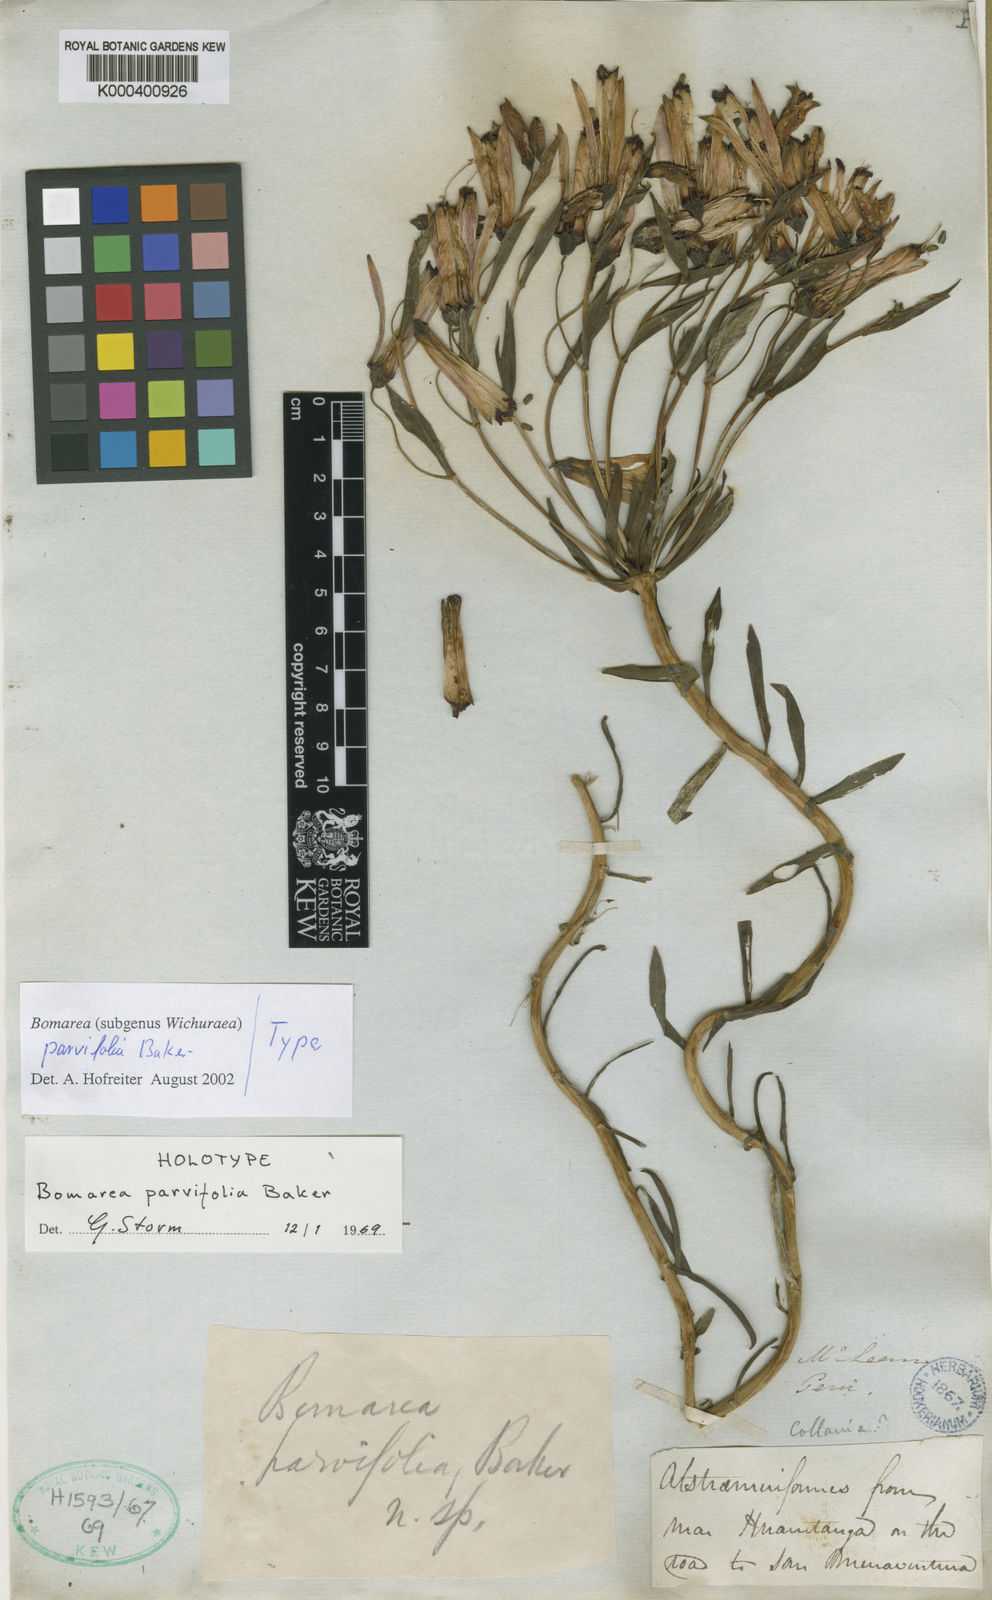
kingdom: Plantae
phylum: Tracheophyta
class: Liliopsida
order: Liliales
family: Alstroemeriaceae
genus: Bomarea
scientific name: Bomarea parvifolia
